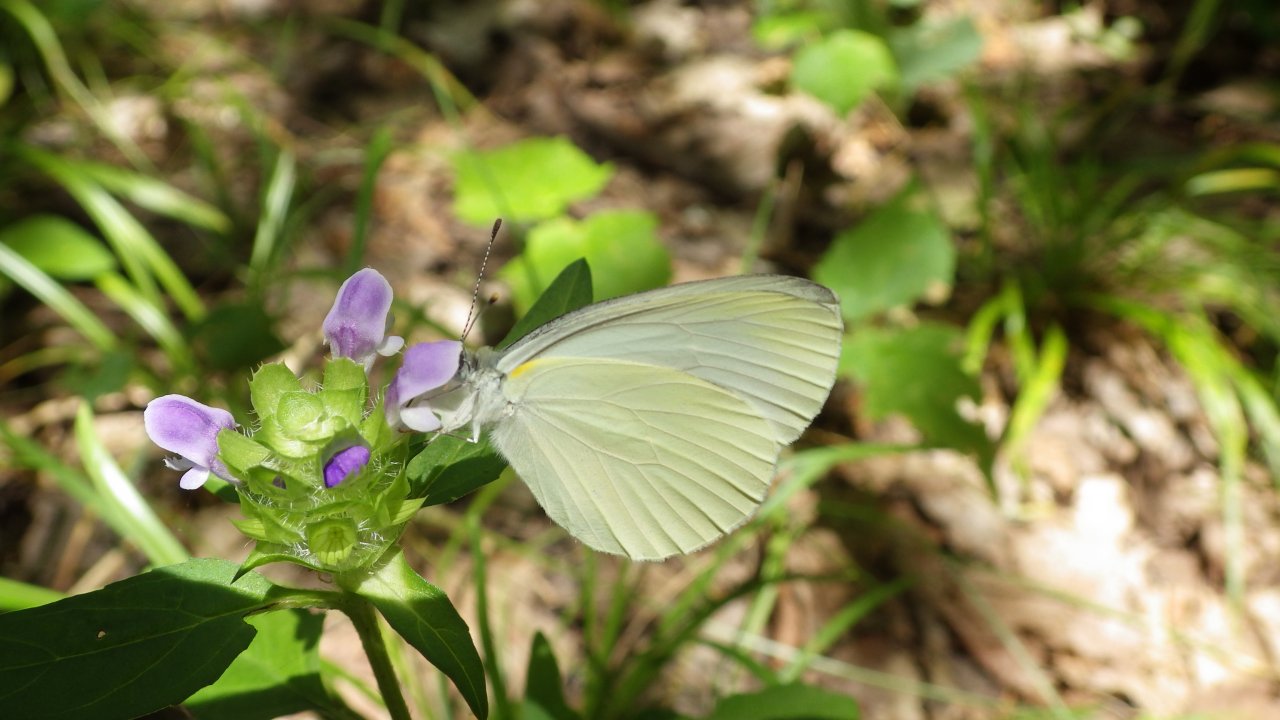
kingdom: Animalia
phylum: Arthropoda
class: Insecta
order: Lepidoptera
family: Pieridae
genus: Pieris
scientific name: Pieris oleracea
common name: Mustard White
